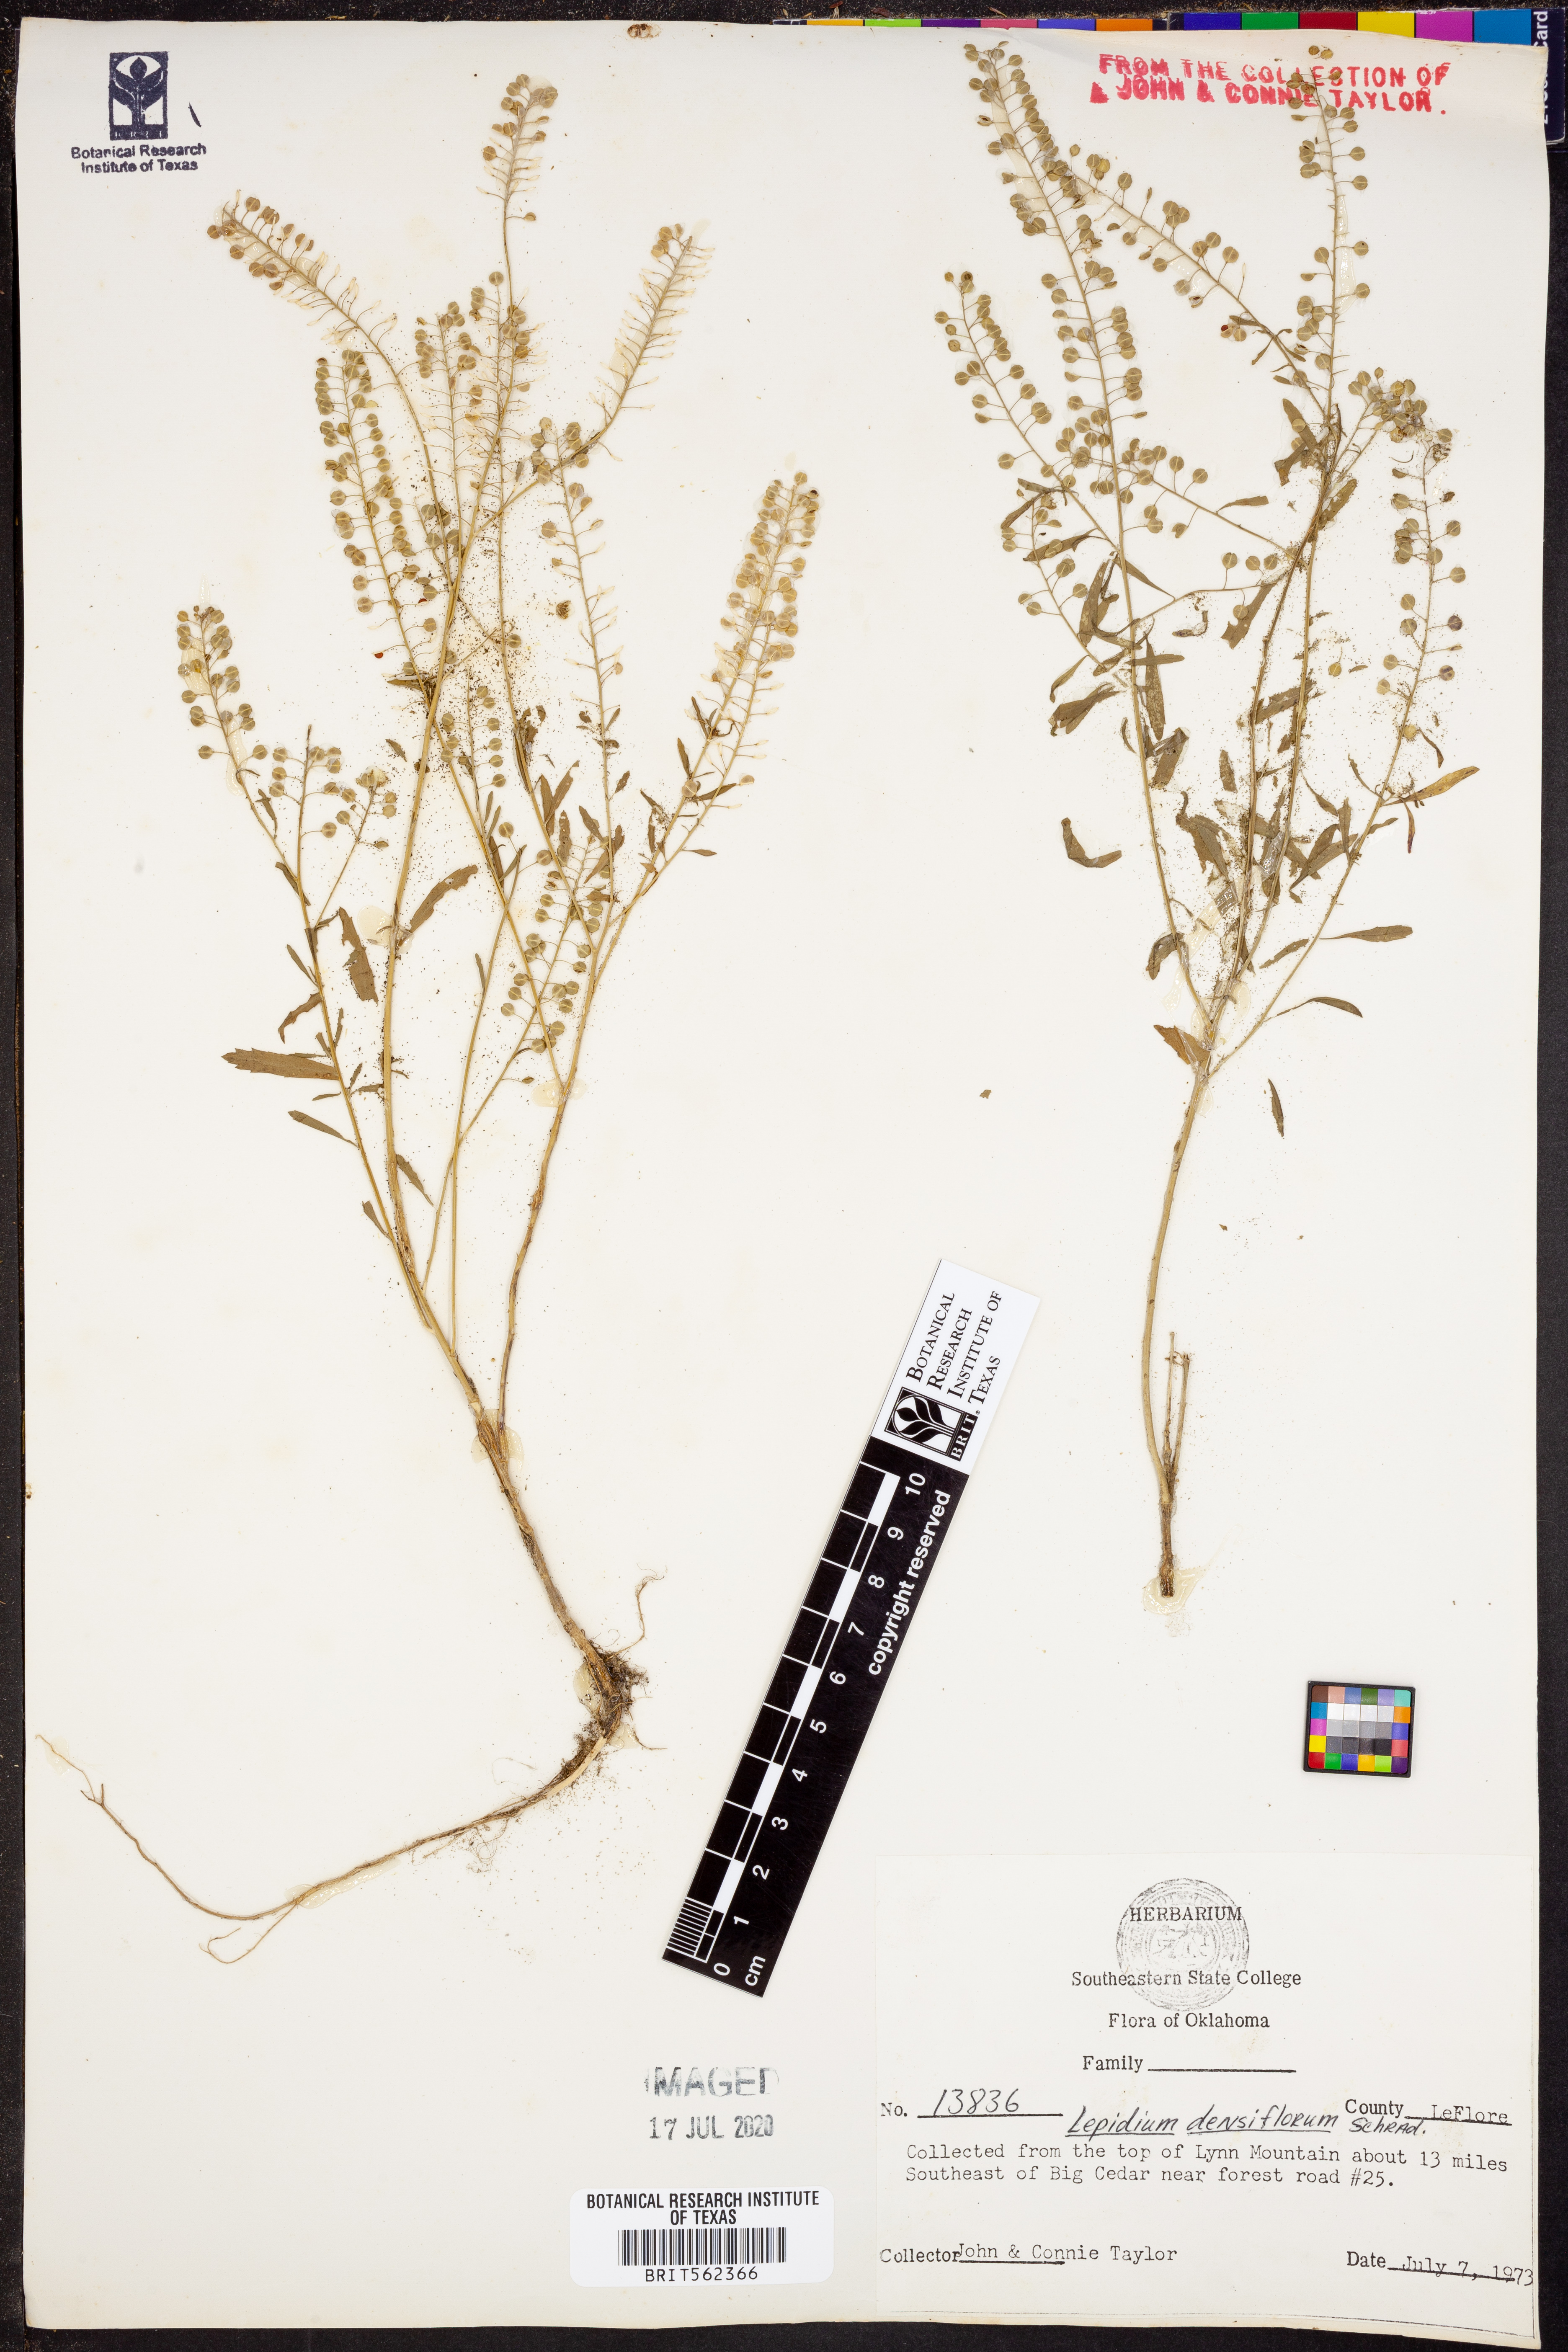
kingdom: Plantae
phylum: Tracheophyta
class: Magnoliopsida
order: Brassicales
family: Brassicaceae
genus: Lepidium
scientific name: Lepidium densiflorum
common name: Miner's pepperwort
